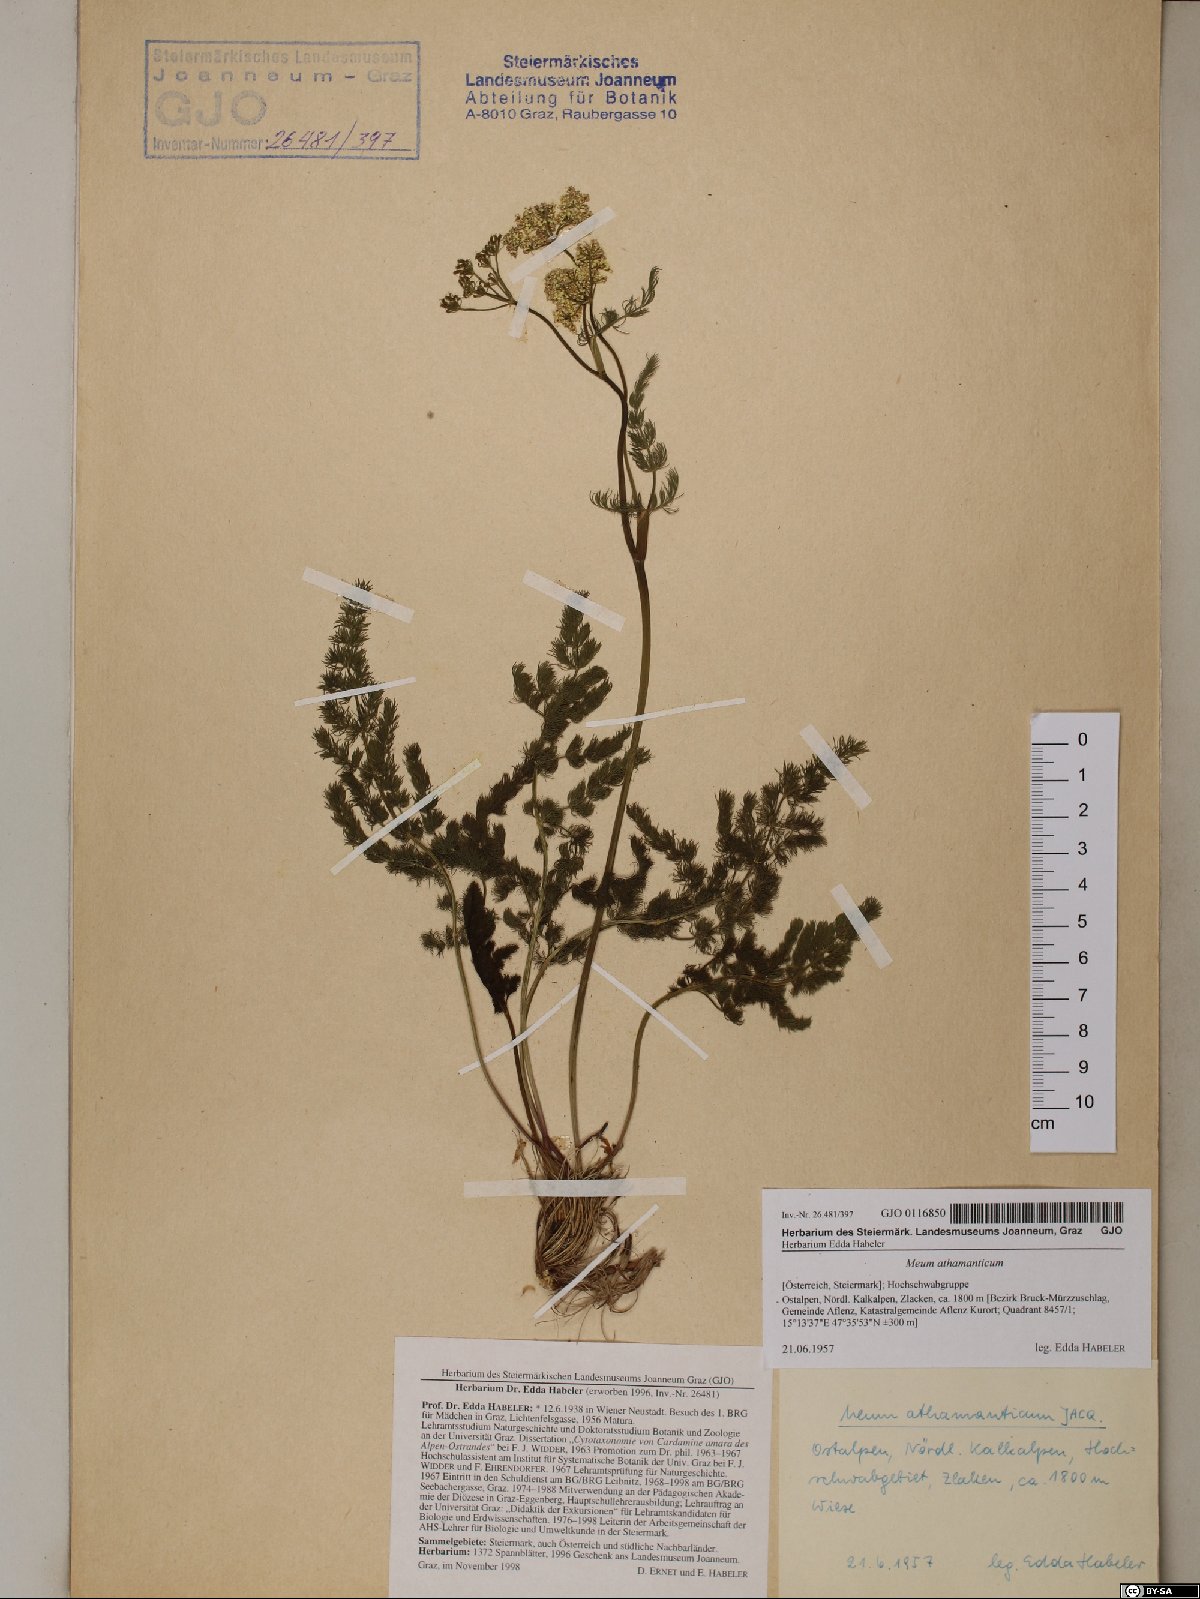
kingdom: Plantae
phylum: Tracheophyta
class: Magnoliopsida
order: Apiales
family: Apiaceae
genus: Meum
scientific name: Meum athamanticum
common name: Spignel
